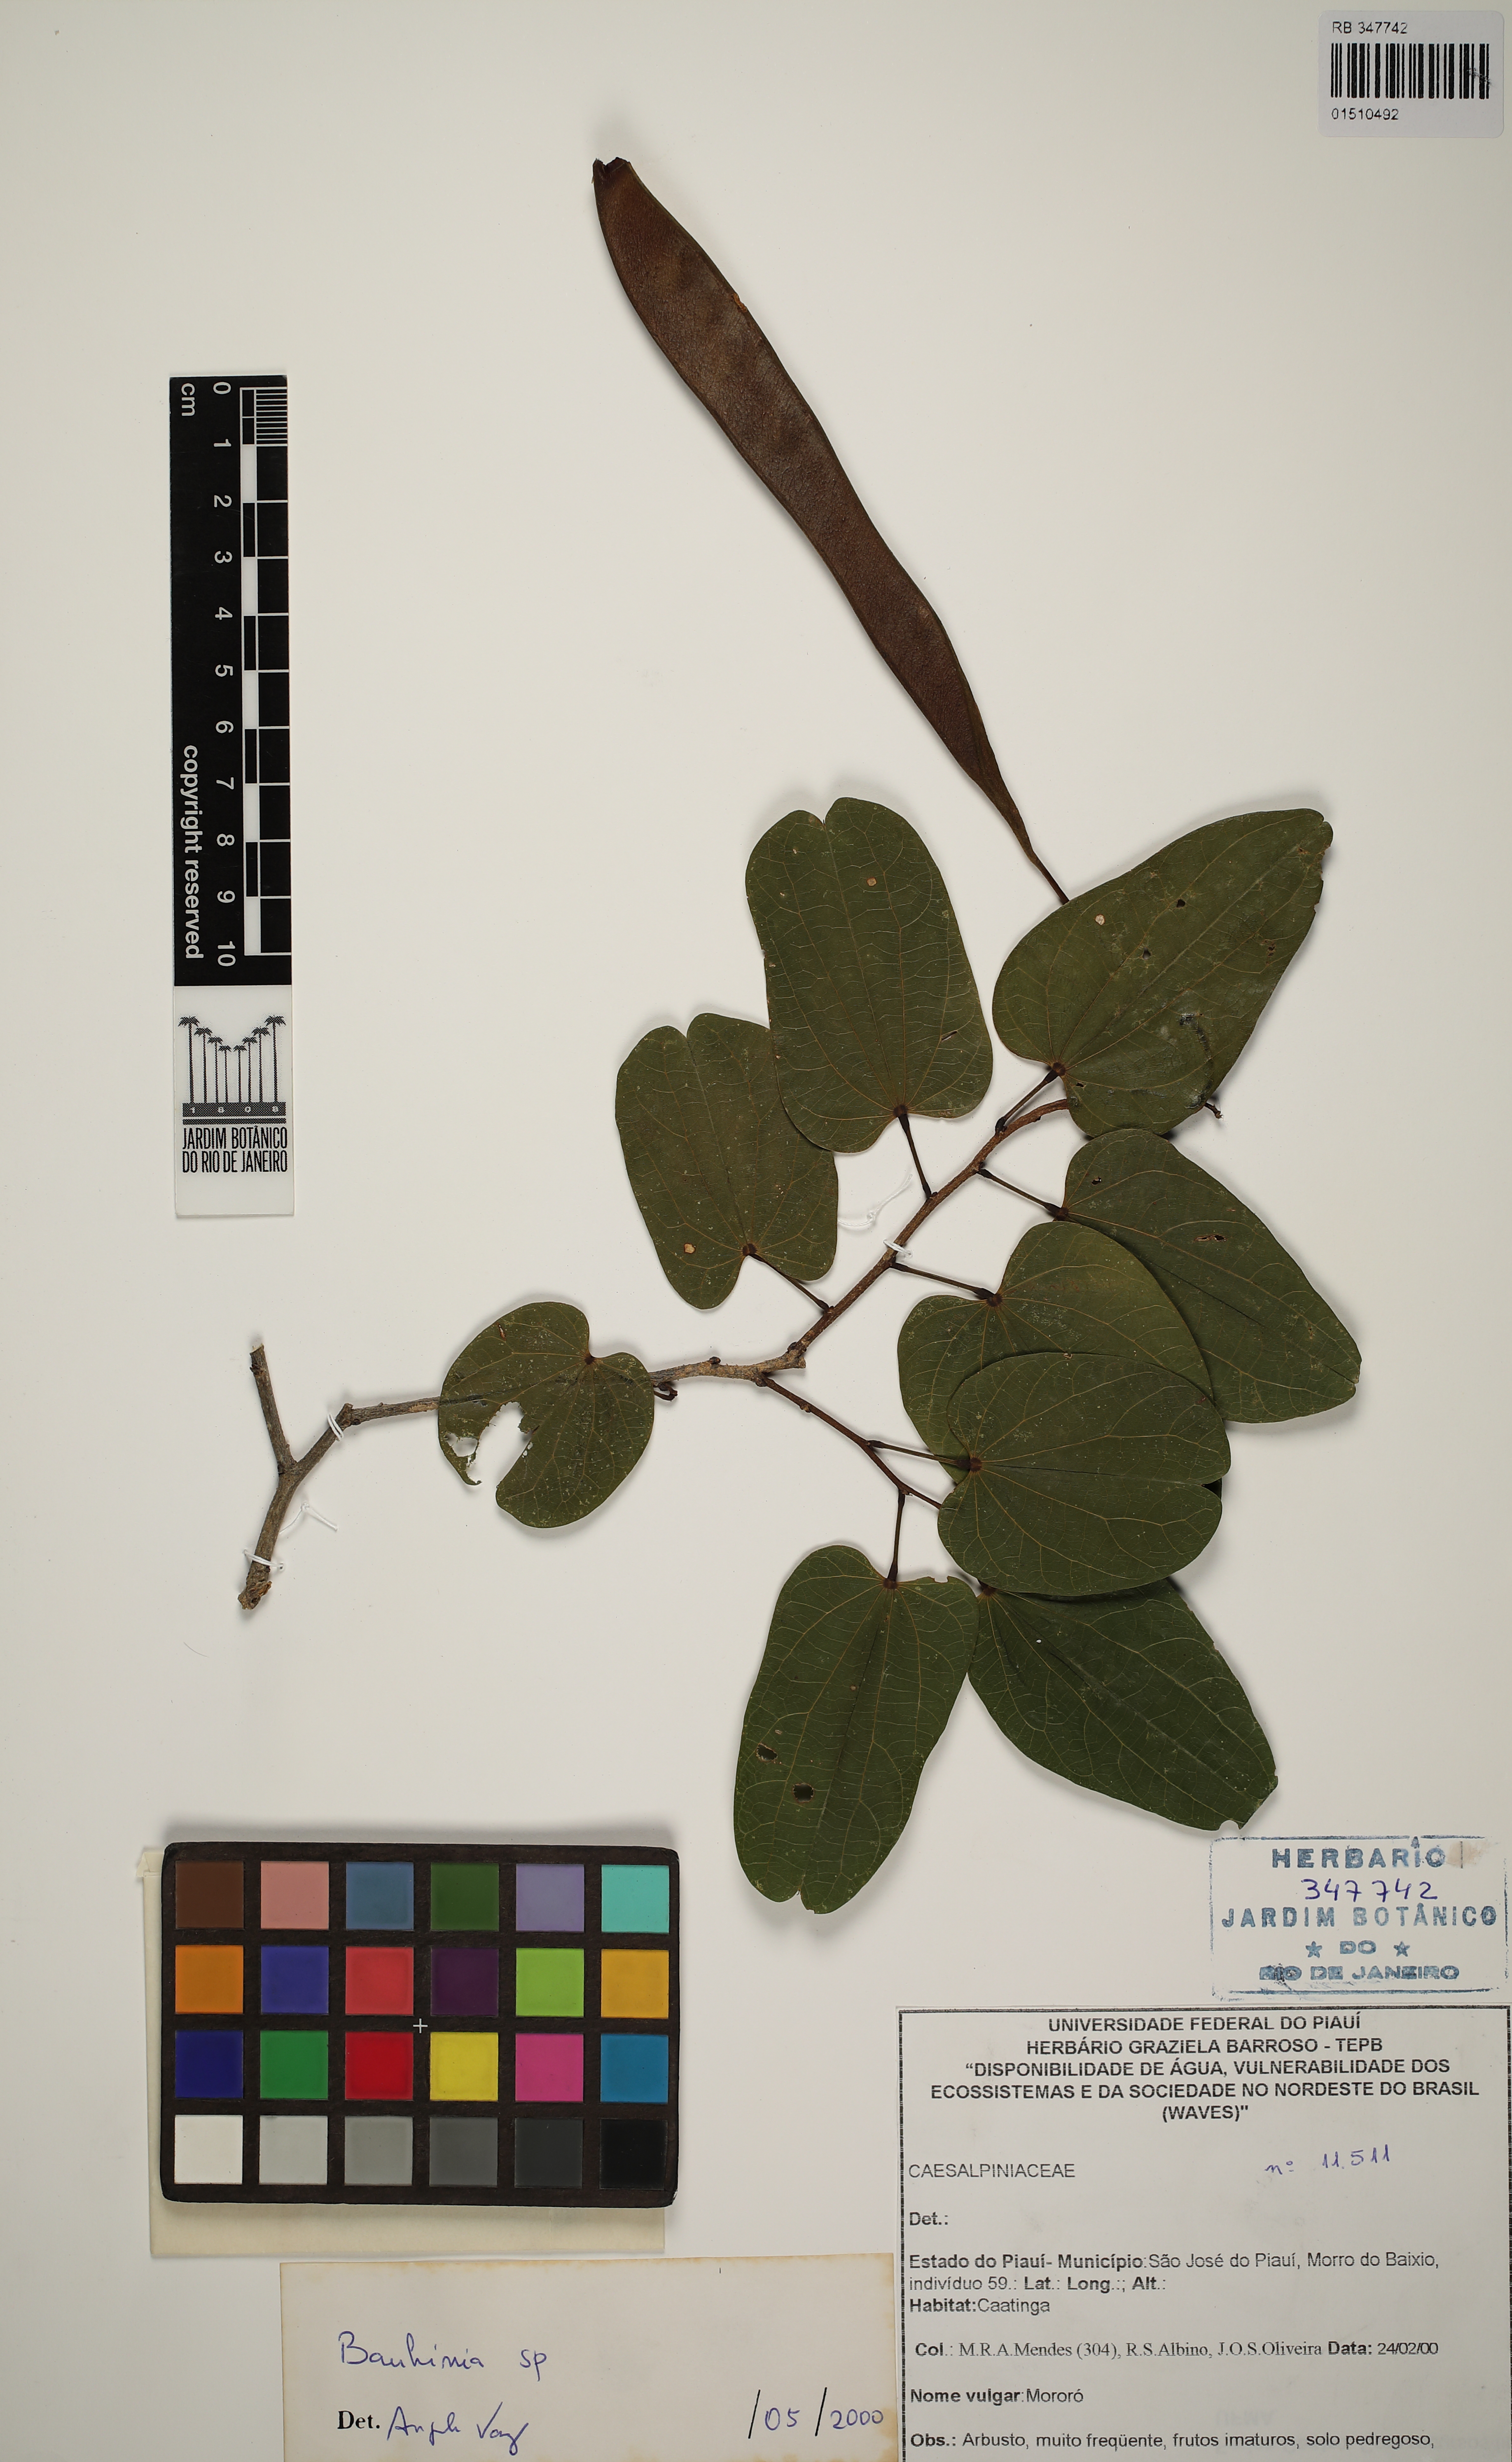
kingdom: Plantae
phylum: Tracheophyta
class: Magnoliopsida
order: Fabales
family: Fabaceae
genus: Bauhinia
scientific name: Bauhinia
